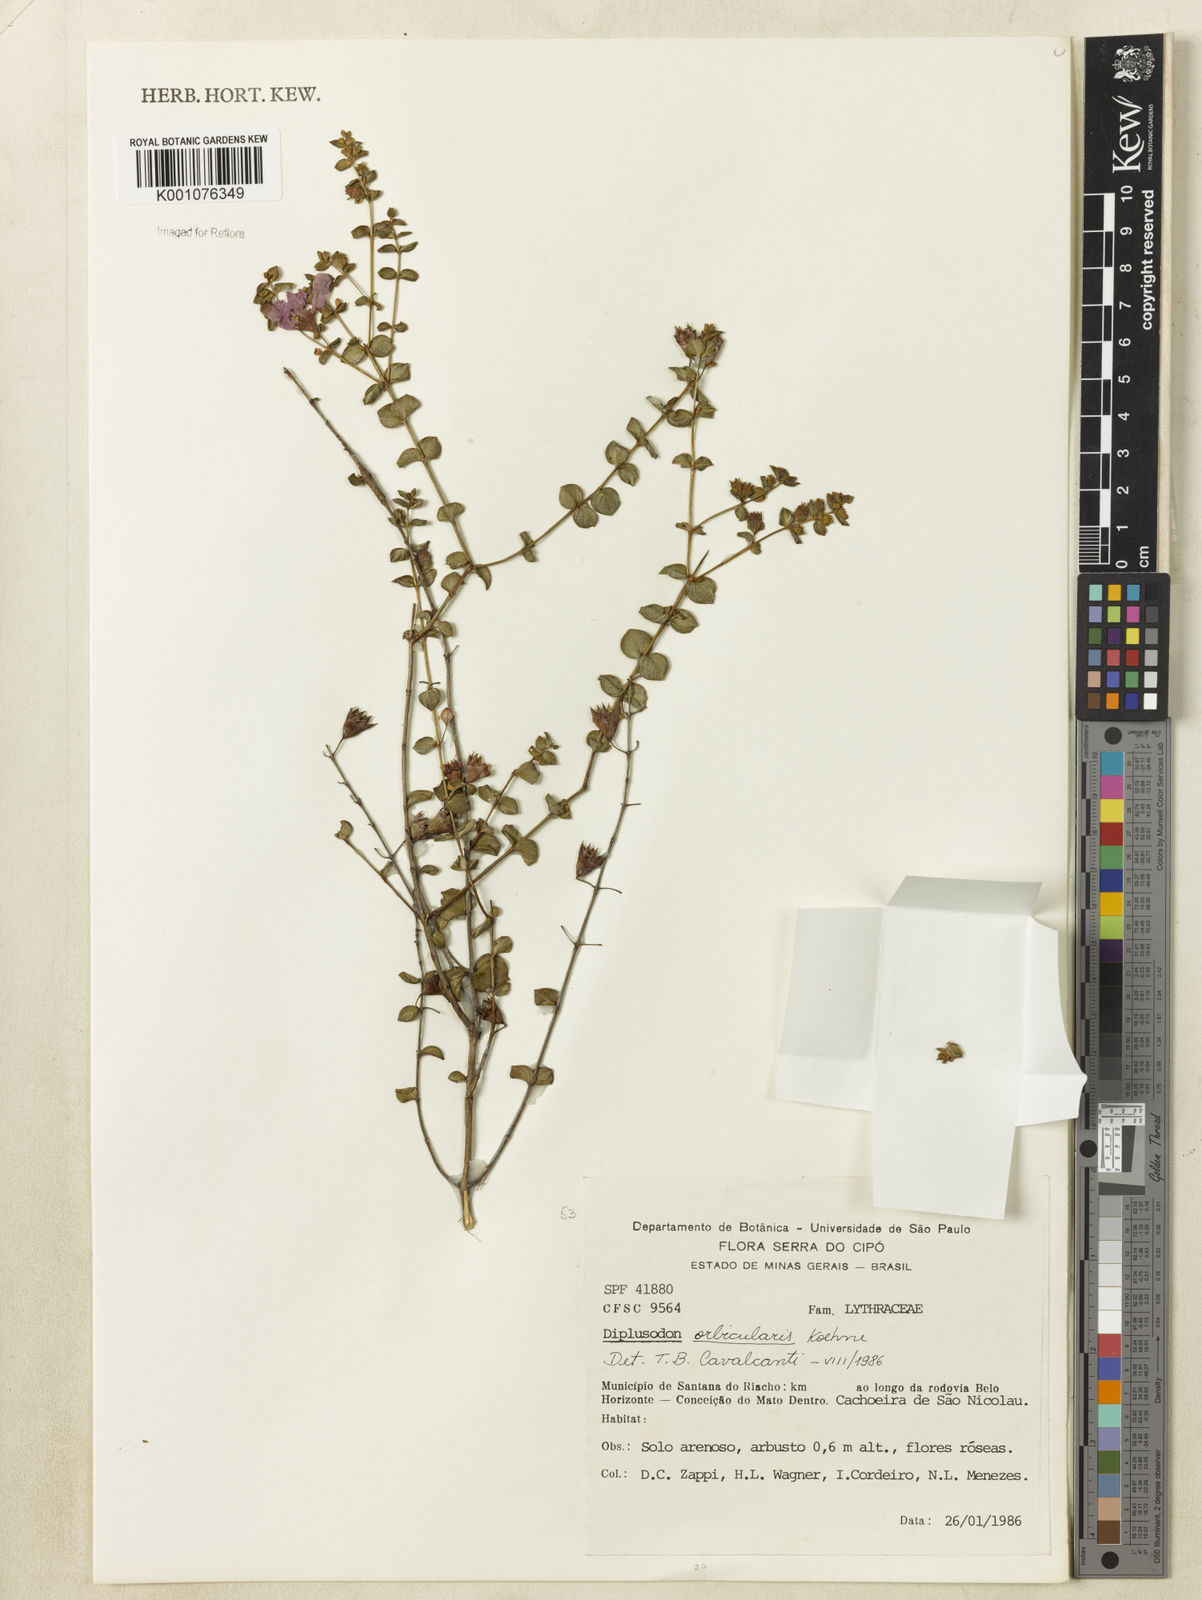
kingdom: Plantae
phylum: Tracheophyta
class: Magnoliopsida
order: Myrtales
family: Lythraceae
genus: Diplusodon
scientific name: Diplusodon orbicularis
